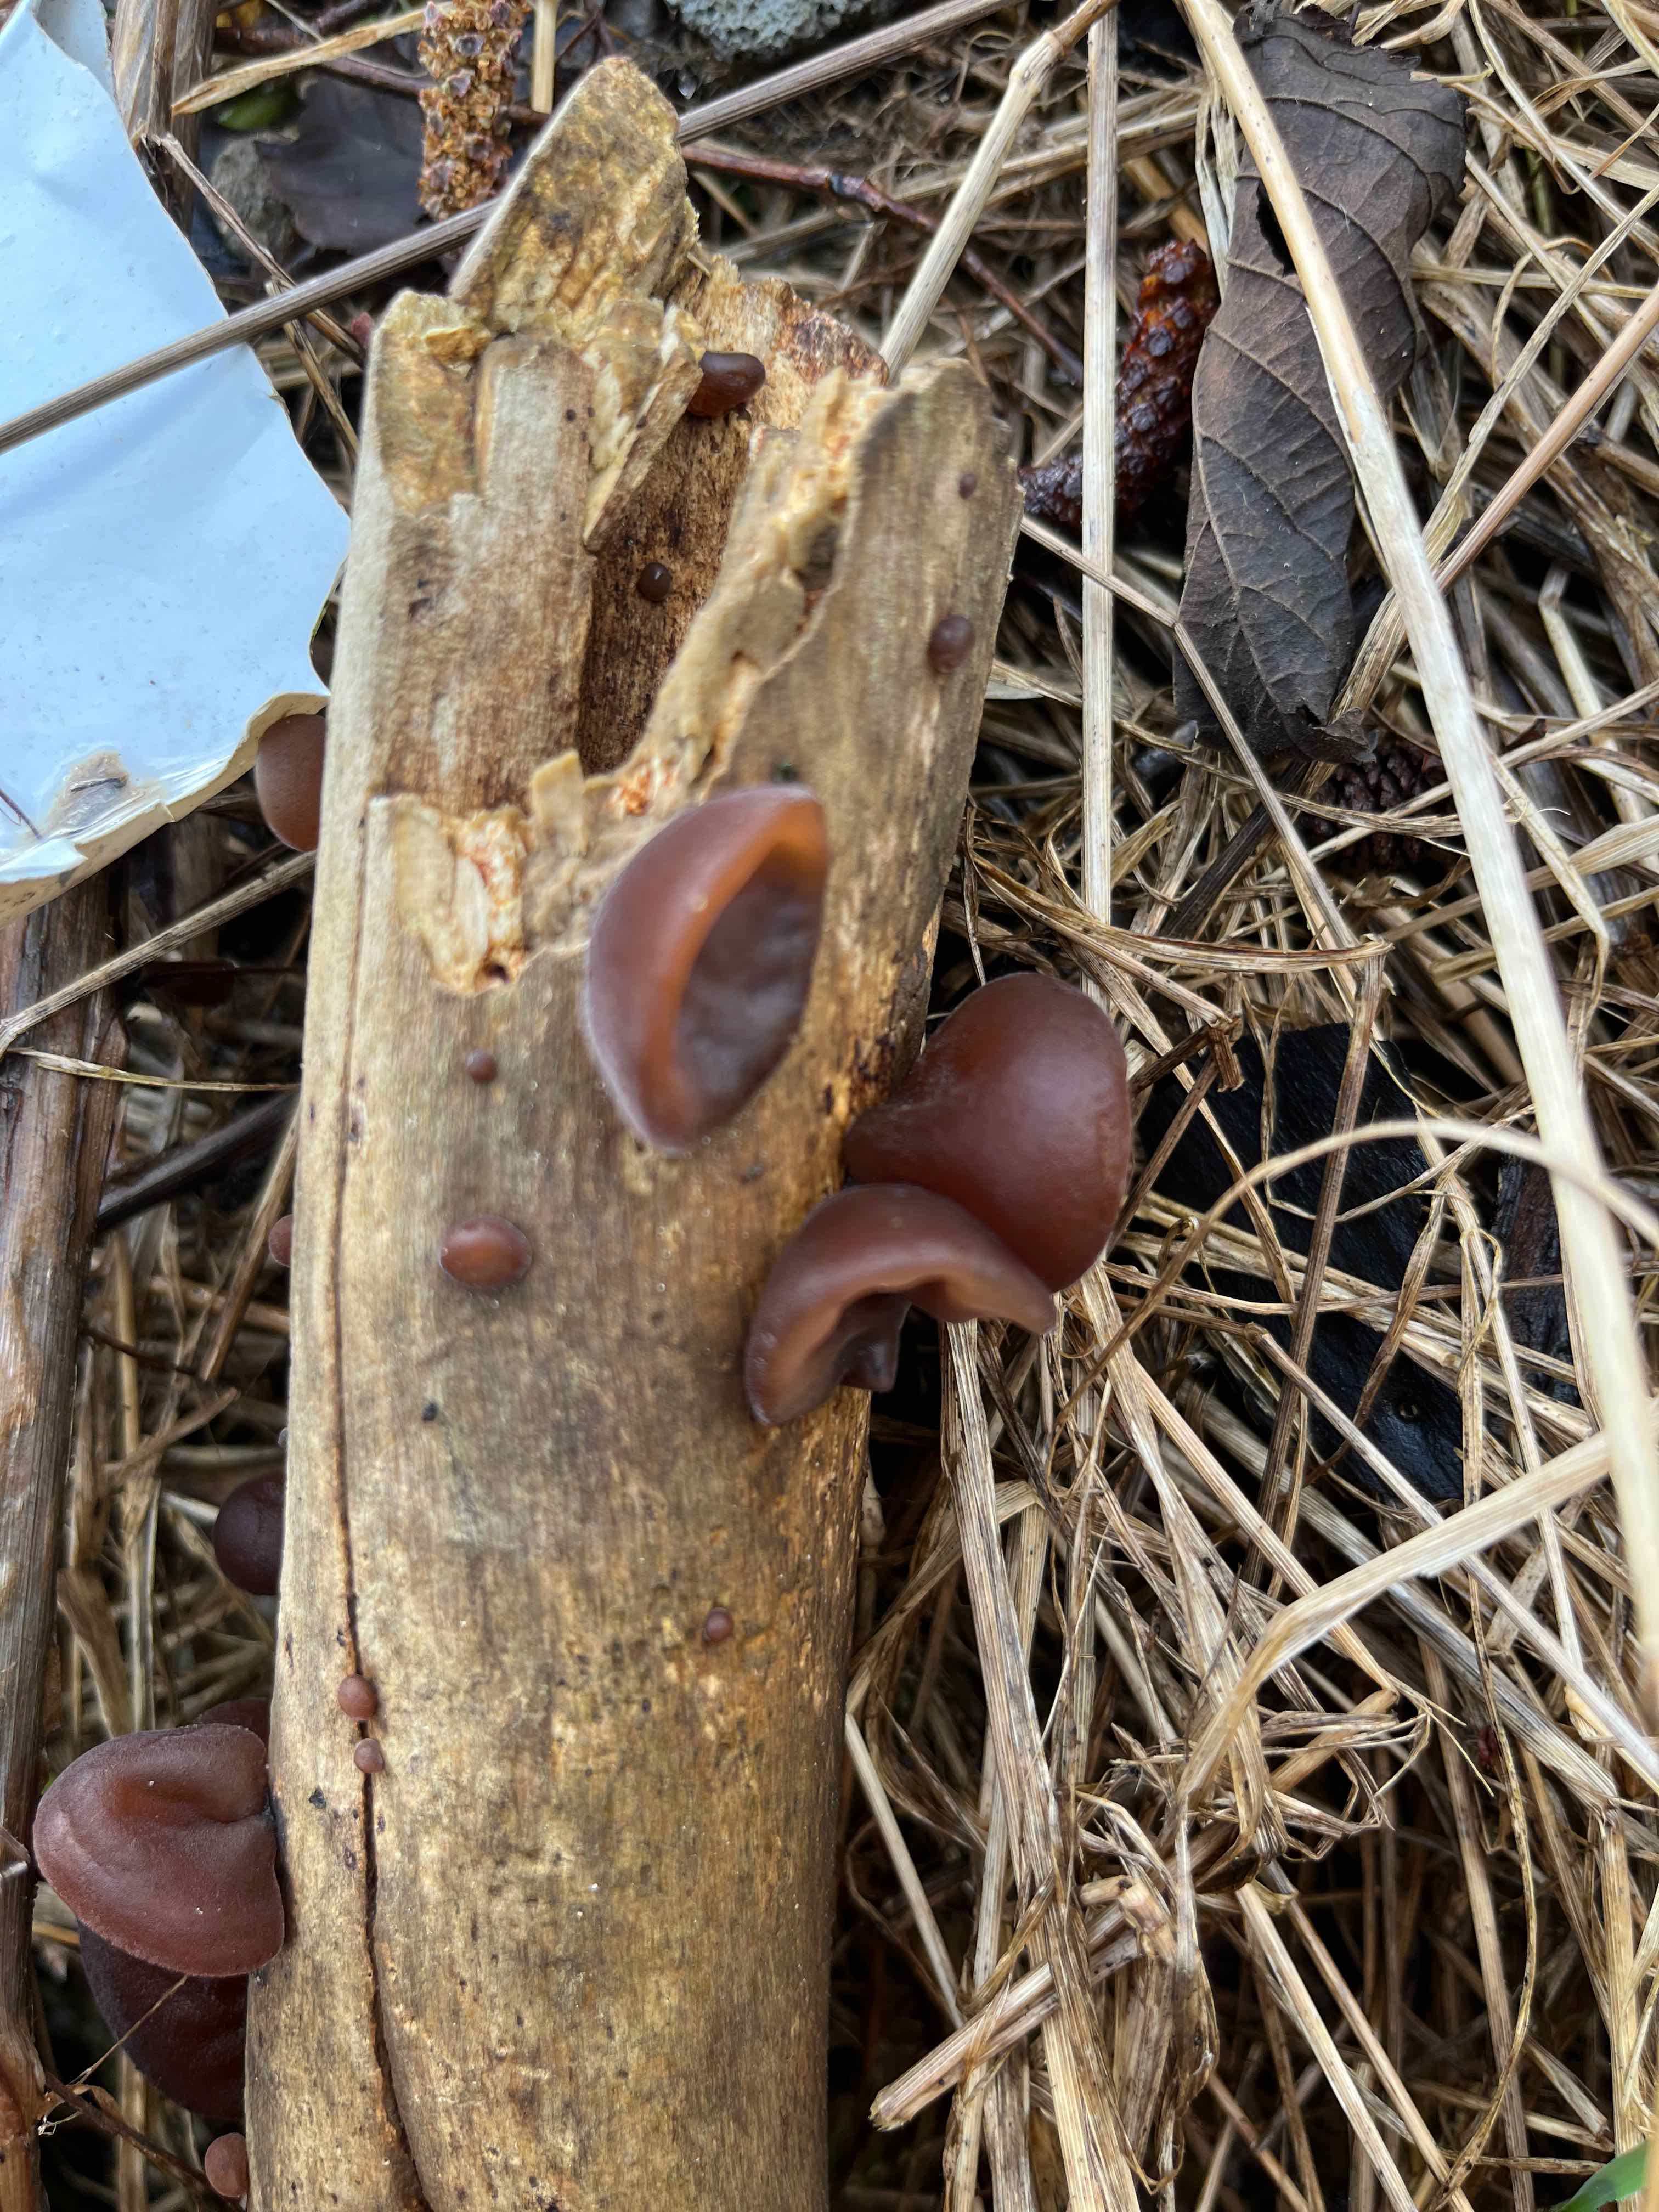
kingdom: Fungi
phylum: Basidiomycota
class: Agaricomycetes
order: Auriculariales
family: Auriculariaceae
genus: Auricularia
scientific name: Auricularia auricula-judae
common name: almindelig judasøre
